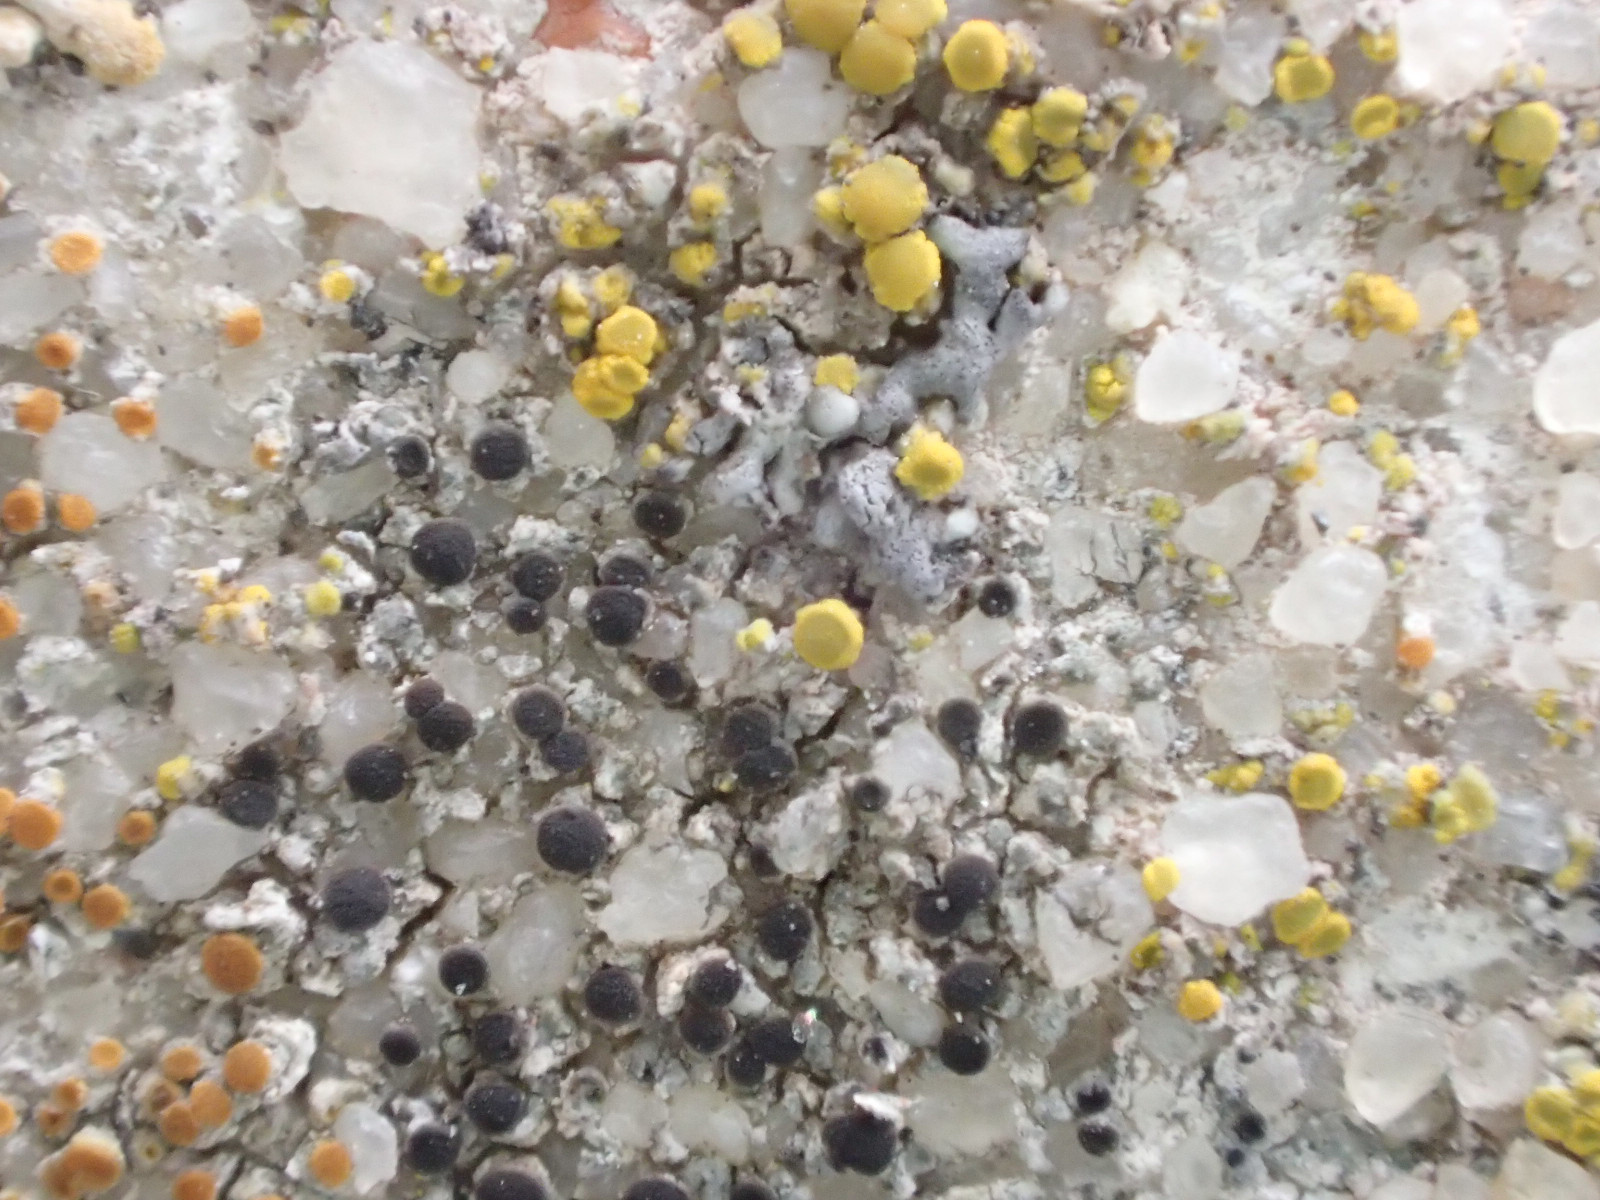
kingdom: Fungi
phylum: Ascomycota
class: Lecanoromycetes
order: Caliciales
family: Physciaceae
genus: Rinodina
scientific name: Rinodina oleae
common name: kyst-knaplav
